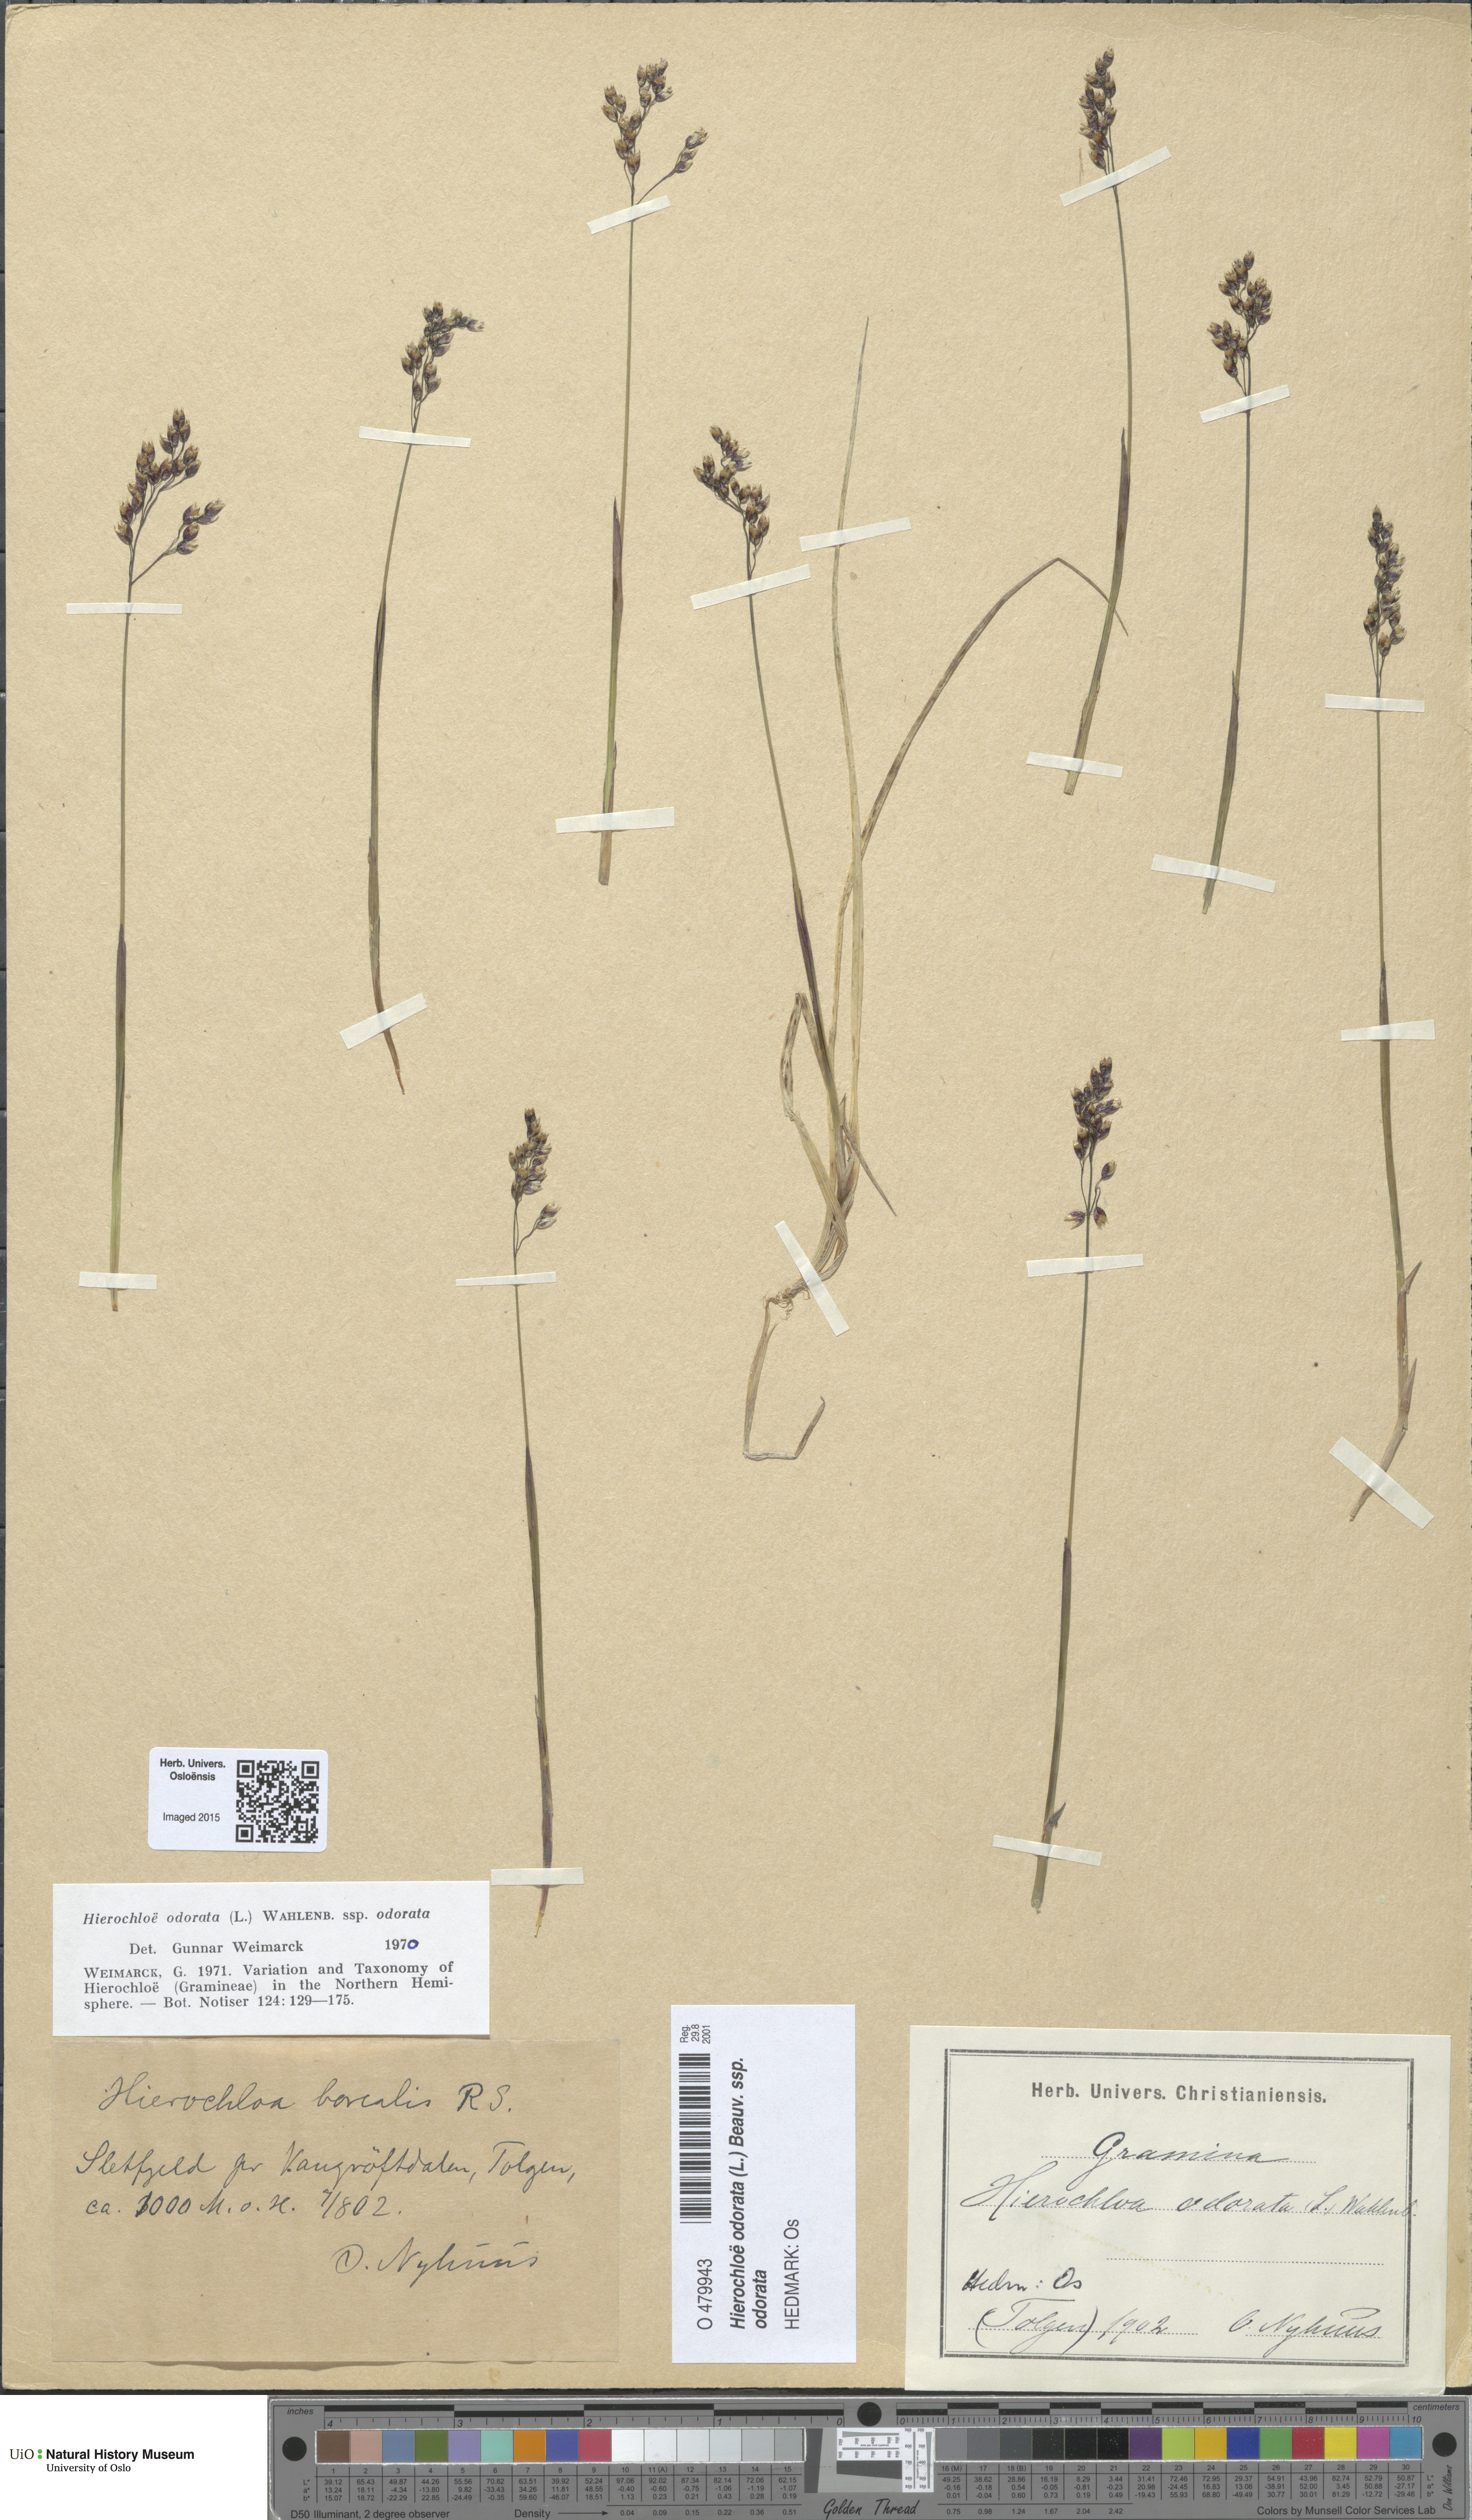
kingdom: Plantae
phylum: Tracheophyta
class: Liliopsida
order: Poales
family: Poaceae
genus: Anthoxanthum
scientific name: Anthoxanthum nitens
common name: Holy grass
